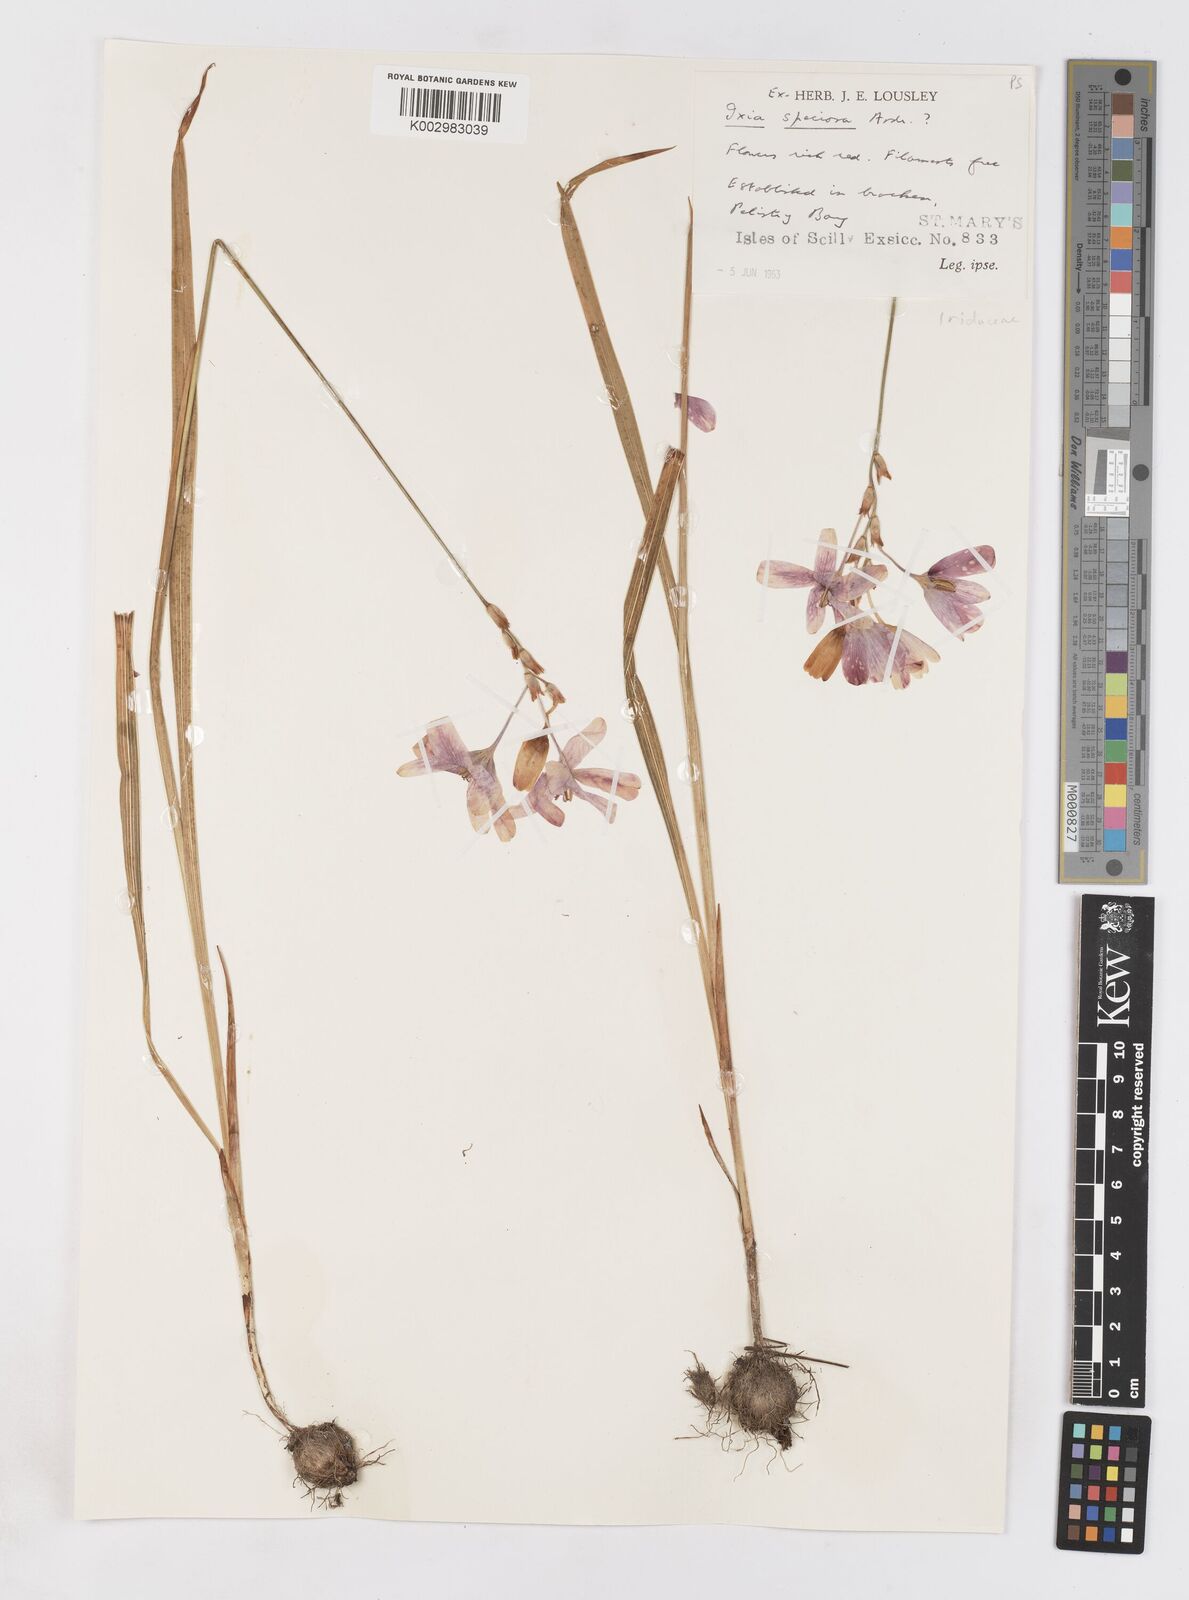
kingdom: Plantae
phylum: Tracheophyta
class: Liliopsida
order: Asparagales
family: Iridaceae
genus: Ixia
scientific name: Ixia
